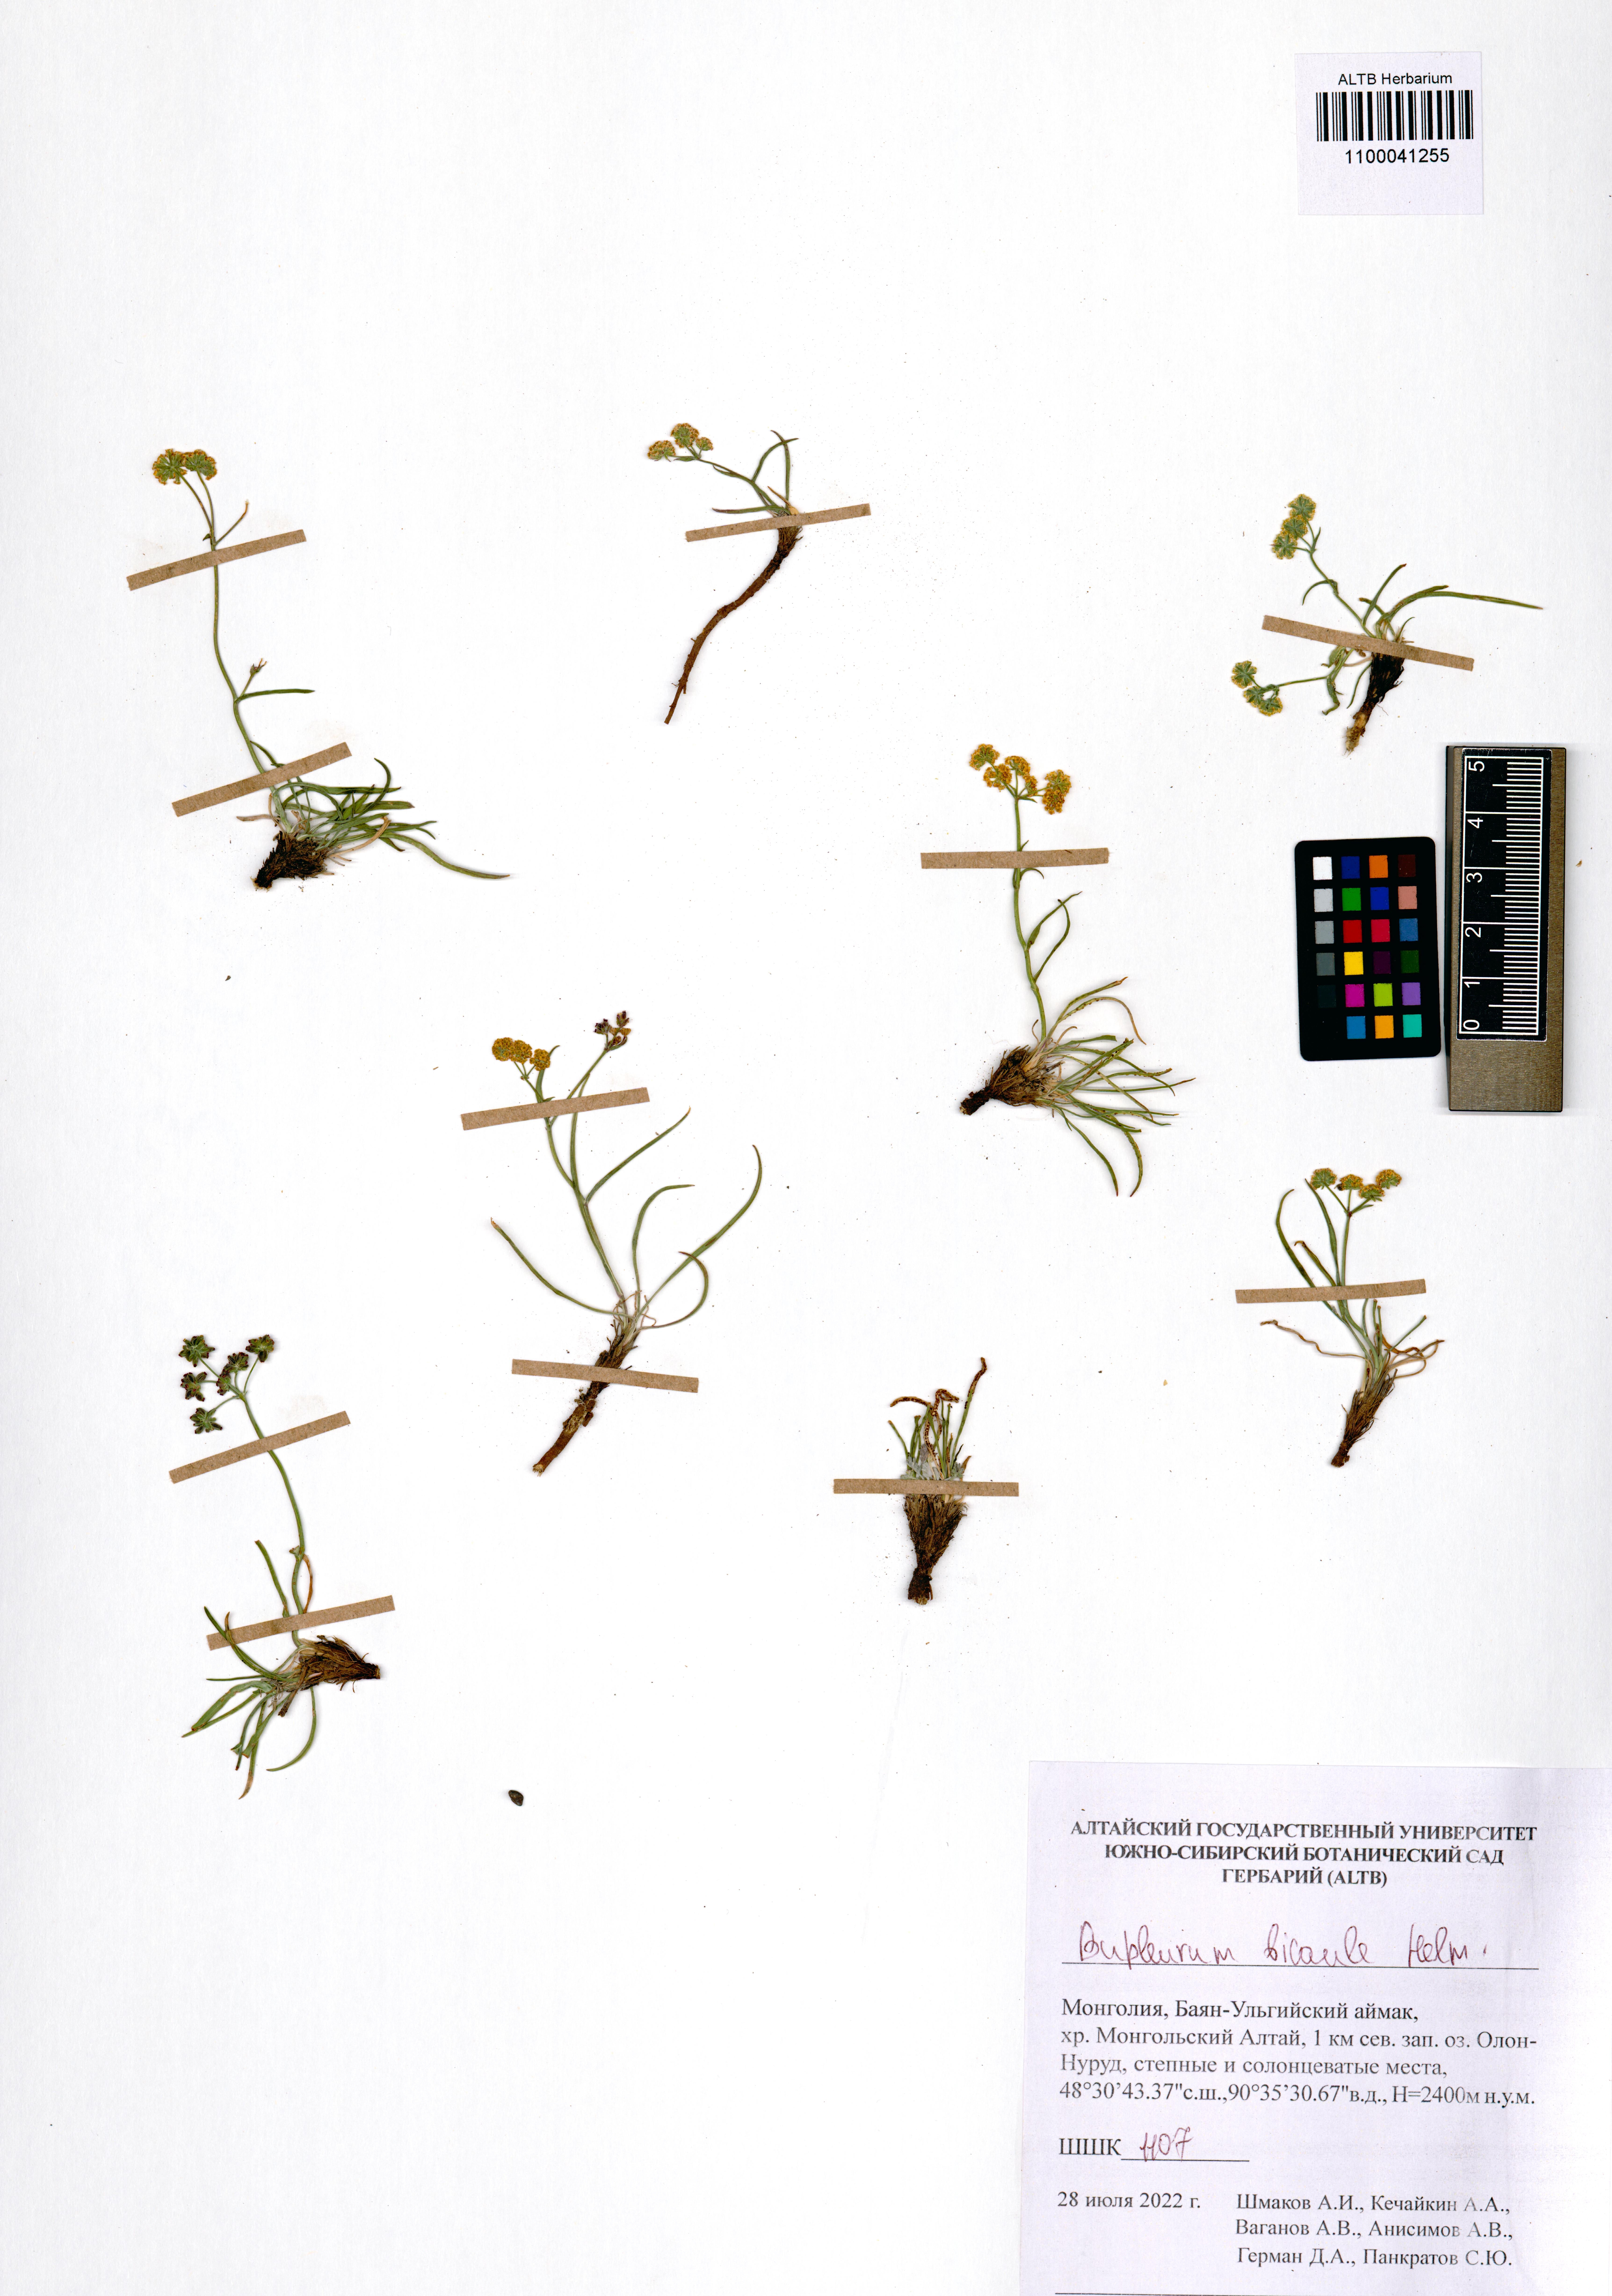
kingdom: Plantae
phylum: Tracheophyta
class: Magnoliopsida
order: Apiales
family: Apiaceae
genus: Bupleurum
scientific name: Bupleurum bicaule
